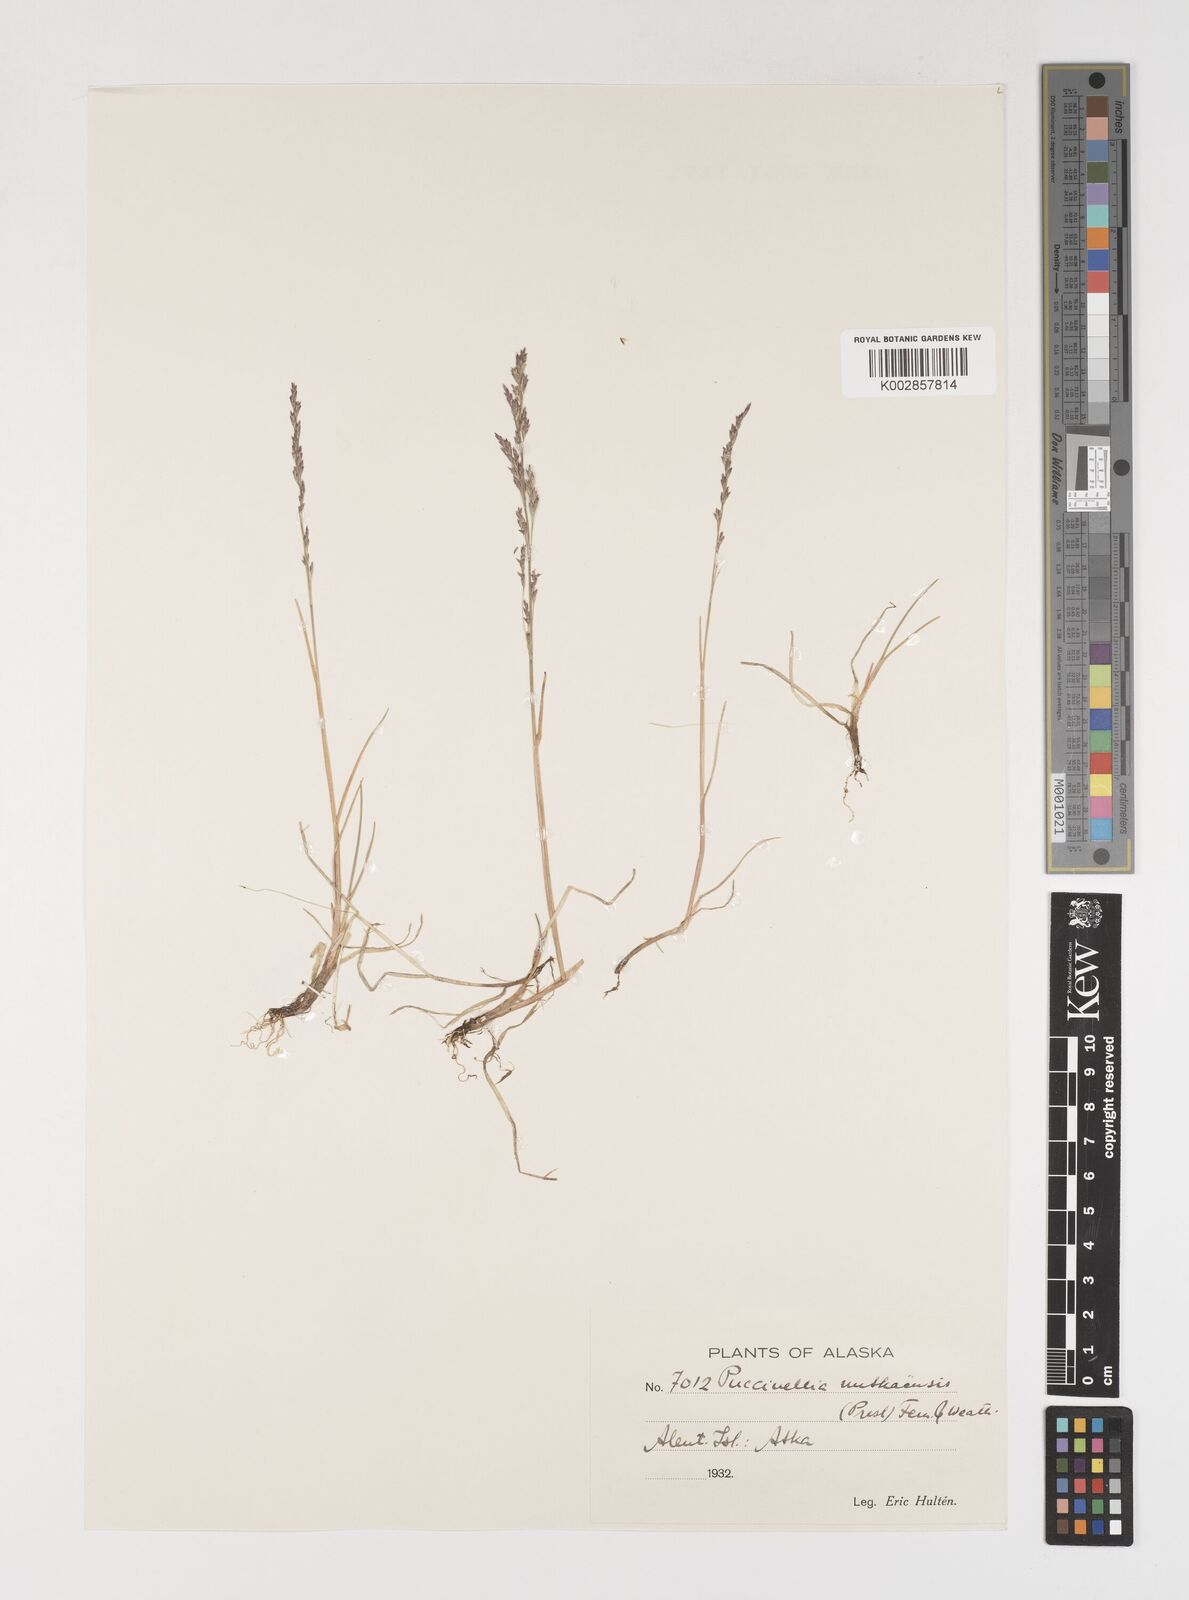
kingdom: Plantae
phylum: Tracheophyta
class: Liliopsida
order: Poales
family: Poaceae
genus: Puccinellia
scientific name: Puccinellia nutkaensis
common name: Nootka alkaligrass
